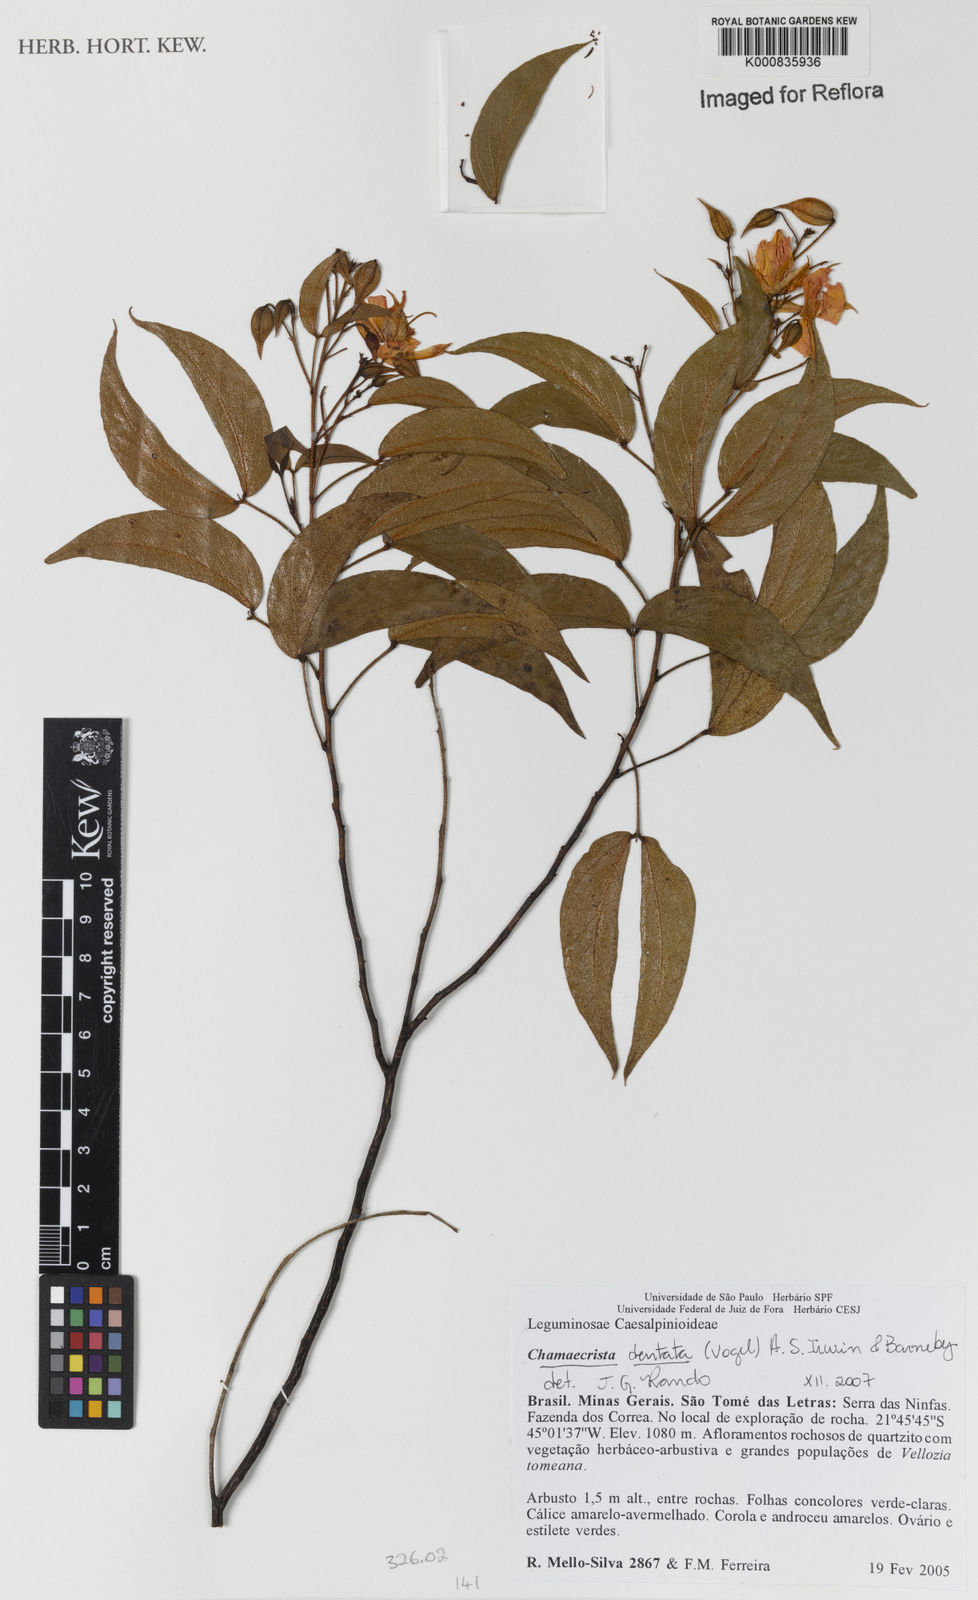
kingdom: Plantae
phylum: Tracheophyta
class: Magnoliopsida
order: Fabales
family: Fabaceae
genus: Chamaecrista
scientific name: Chamaecrista dentata
